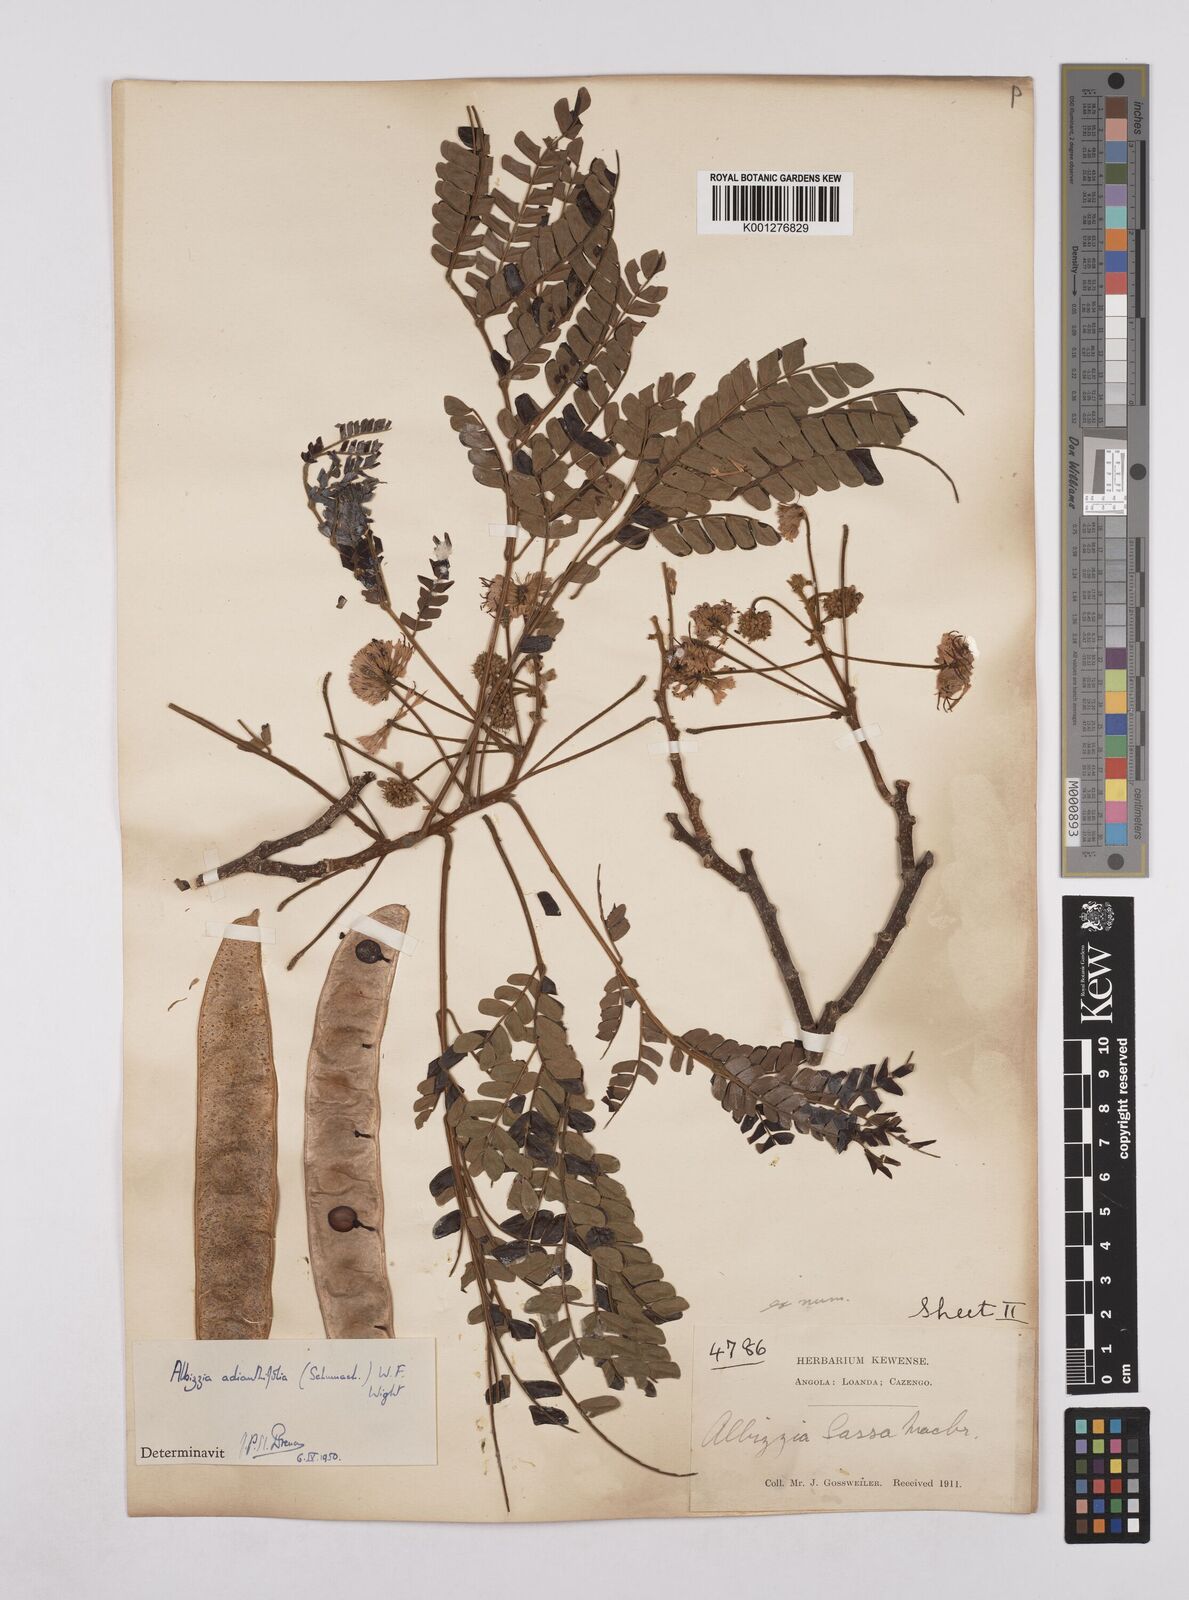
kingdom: Plantae
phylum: Tracheophyta
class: Magnoliopsida
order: Fabales
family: Fabaceae
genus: Albizia
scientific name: Albizia adianthifolia
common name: West african albizia
